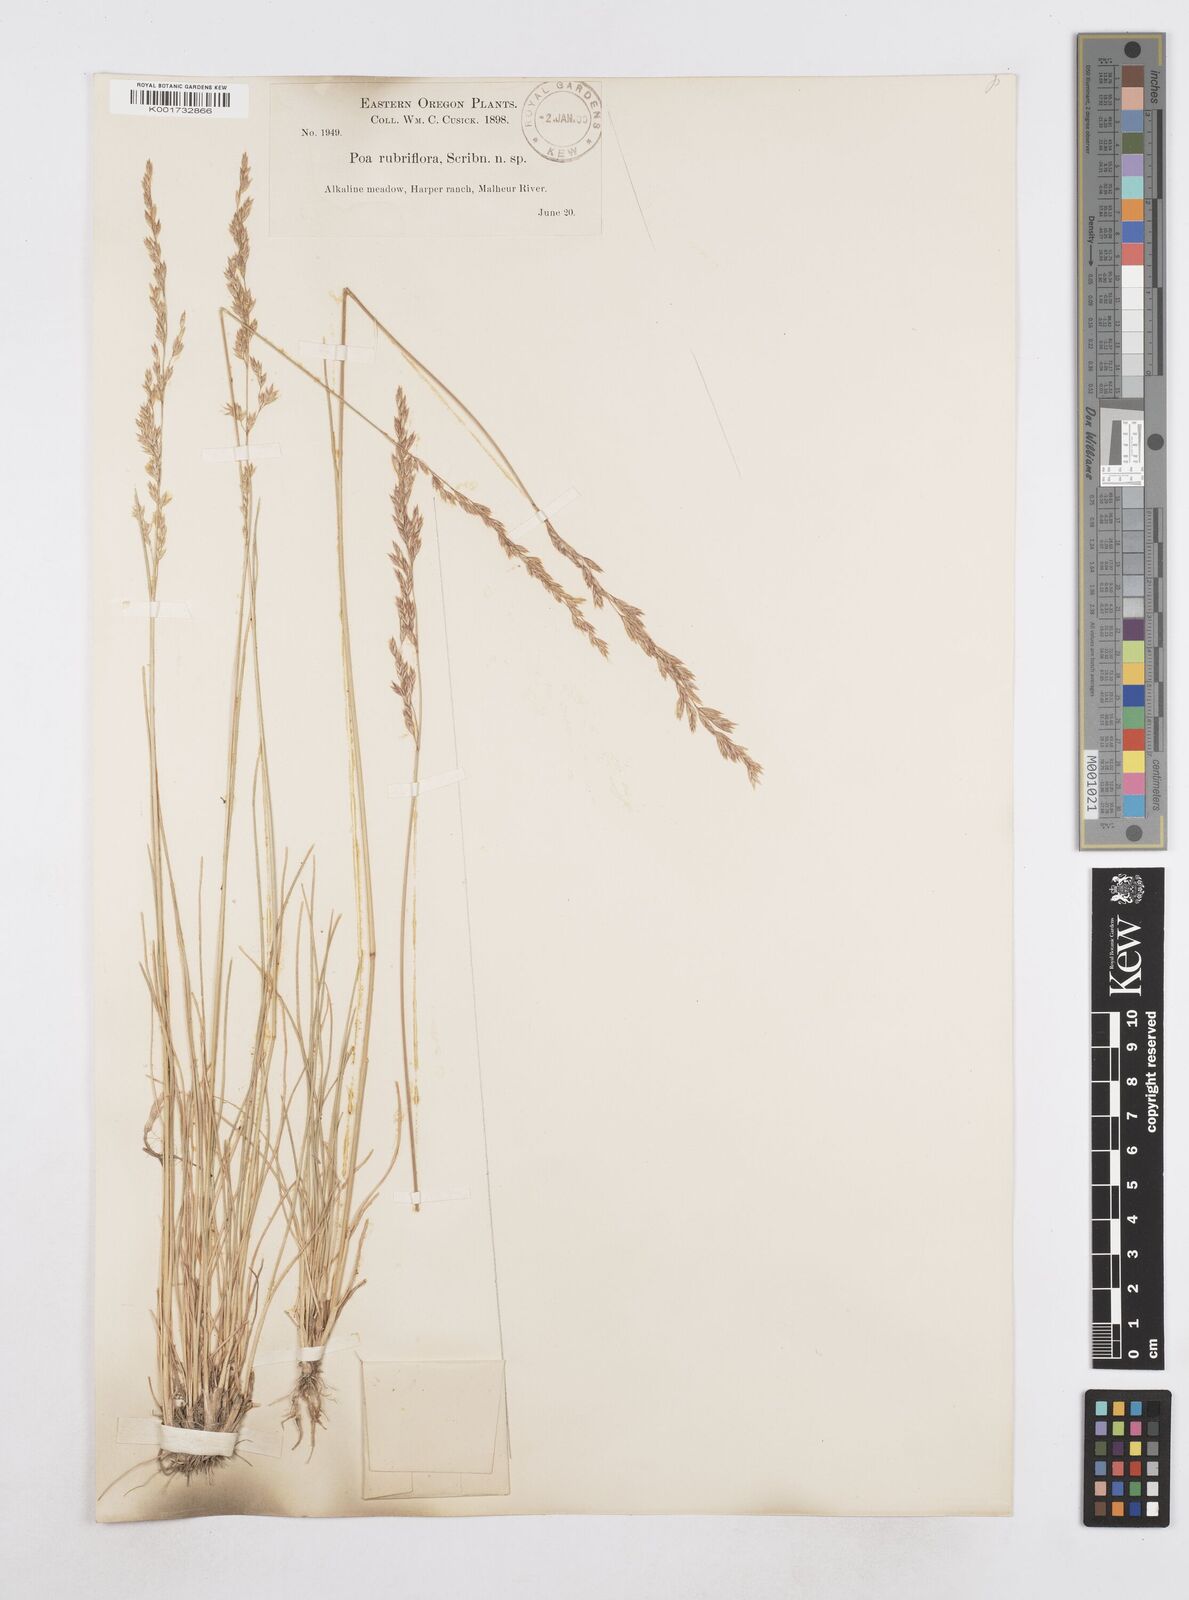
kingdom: Plantae
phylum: Tracheophyta
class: Liliopsida
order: Poales
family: Poaceae
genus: Poa
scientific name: Poa
